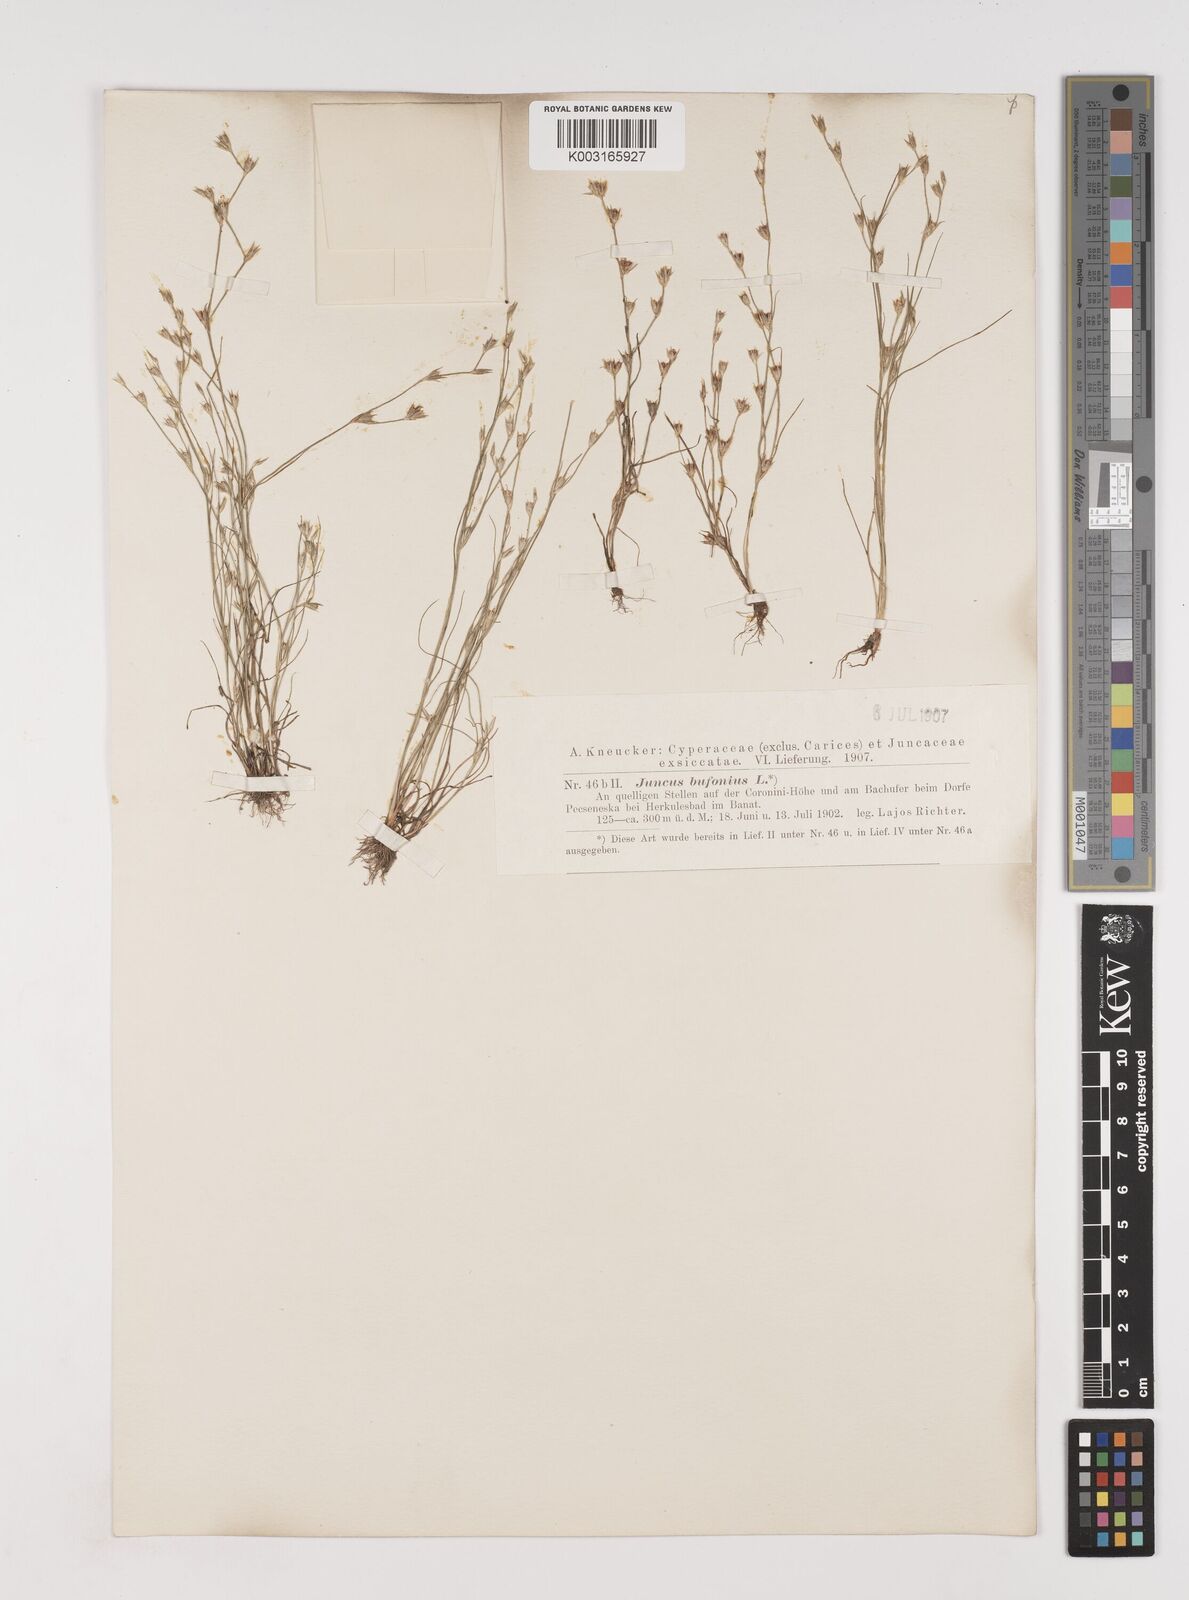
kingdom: Plantae
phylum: Tracheophyta
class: Liliopsida
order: Poales
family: Juncaceae
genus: Juncus
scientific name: Juncus bufonius
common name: Toad rush
